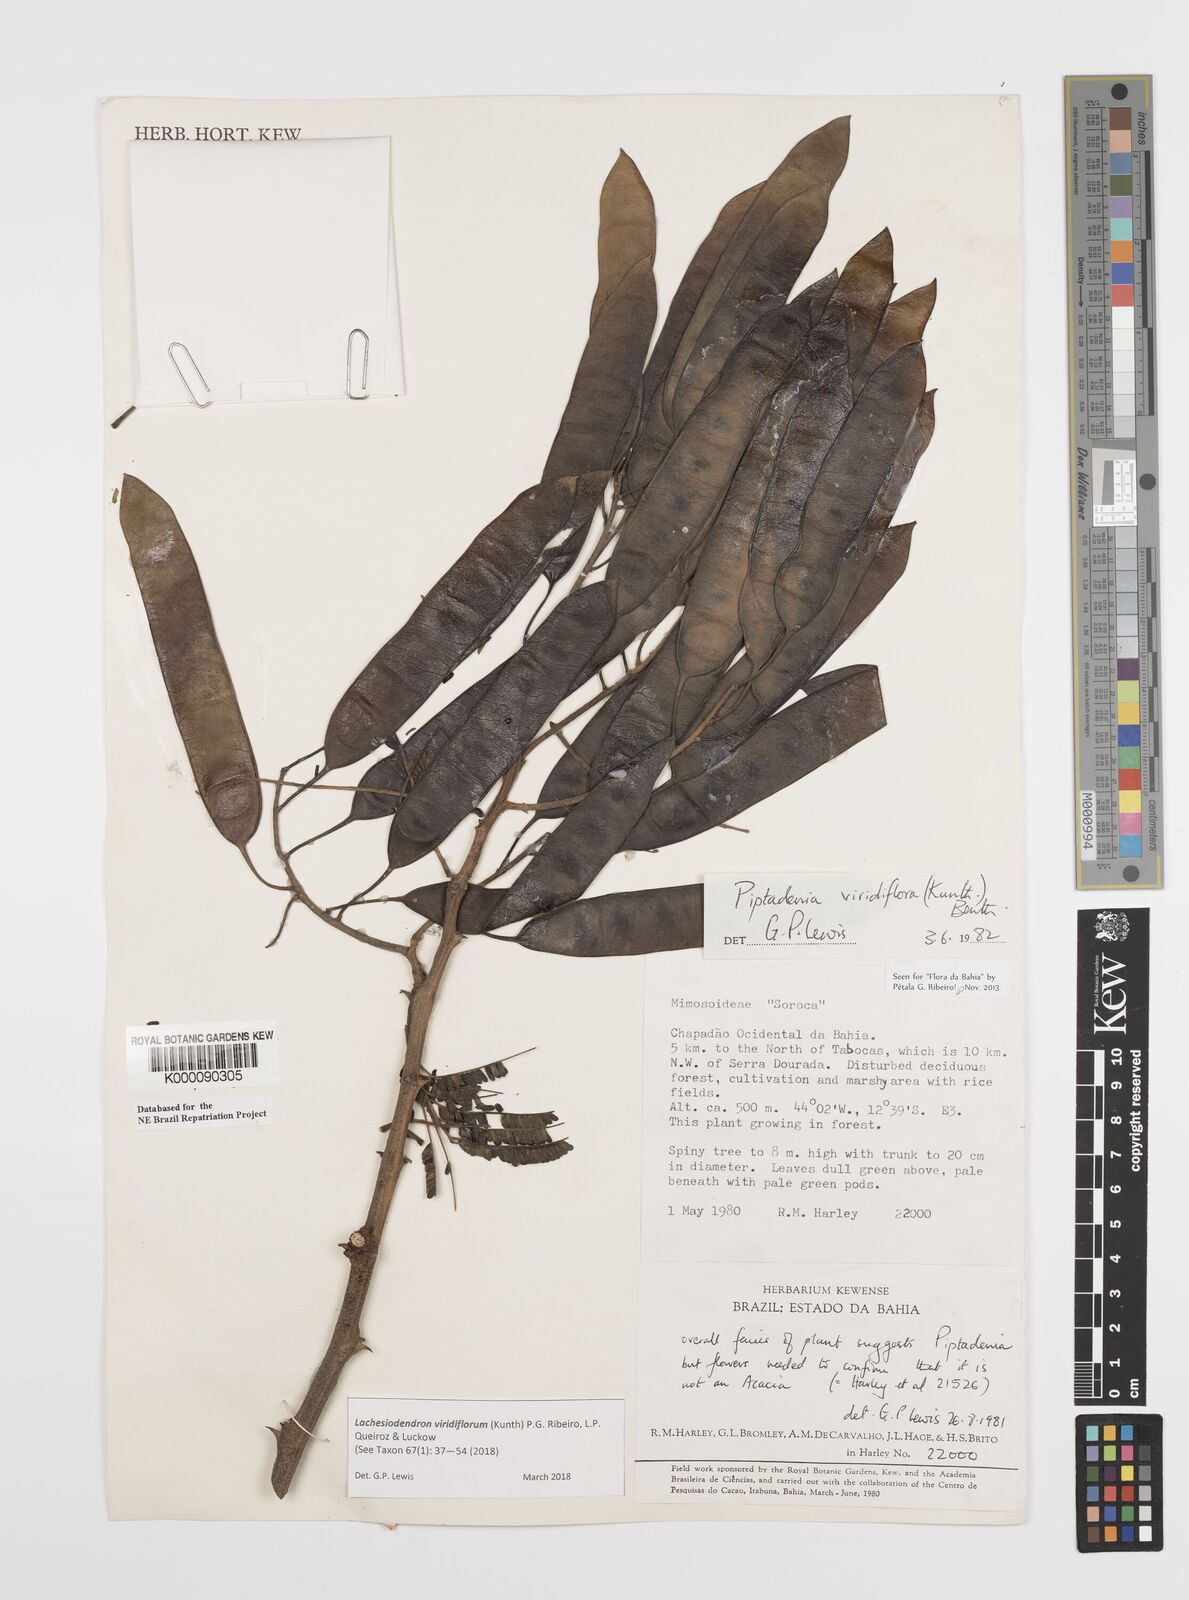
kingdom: Plantae
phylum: Tracheophyta
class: Magnoliopsida
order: Fabales
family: Fabaceae
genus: Lachesiodendron
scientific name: Lachesiodendron viridiflorum
